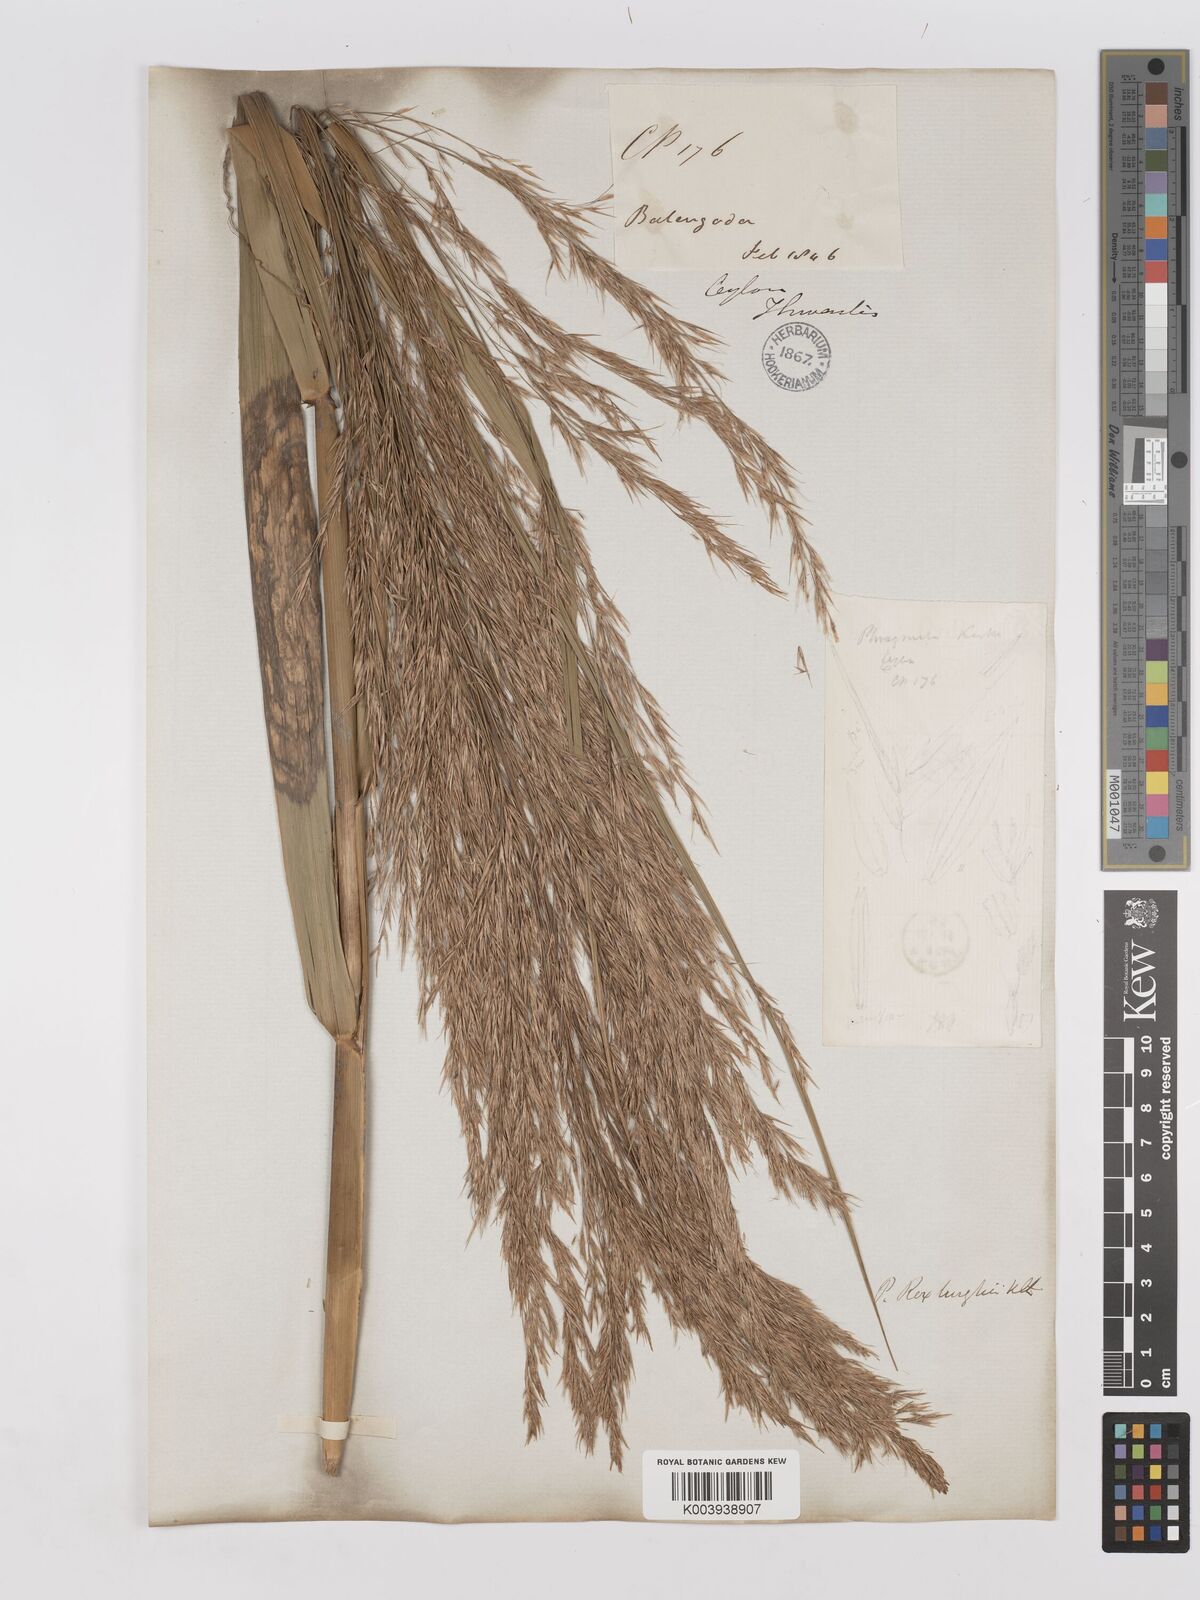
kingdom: Plantae
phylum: Tracheophyta
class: Liliopsida
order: Poales
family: Poaceae
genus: Phragmites
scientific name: Phragmites karka
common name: Tropical reed
